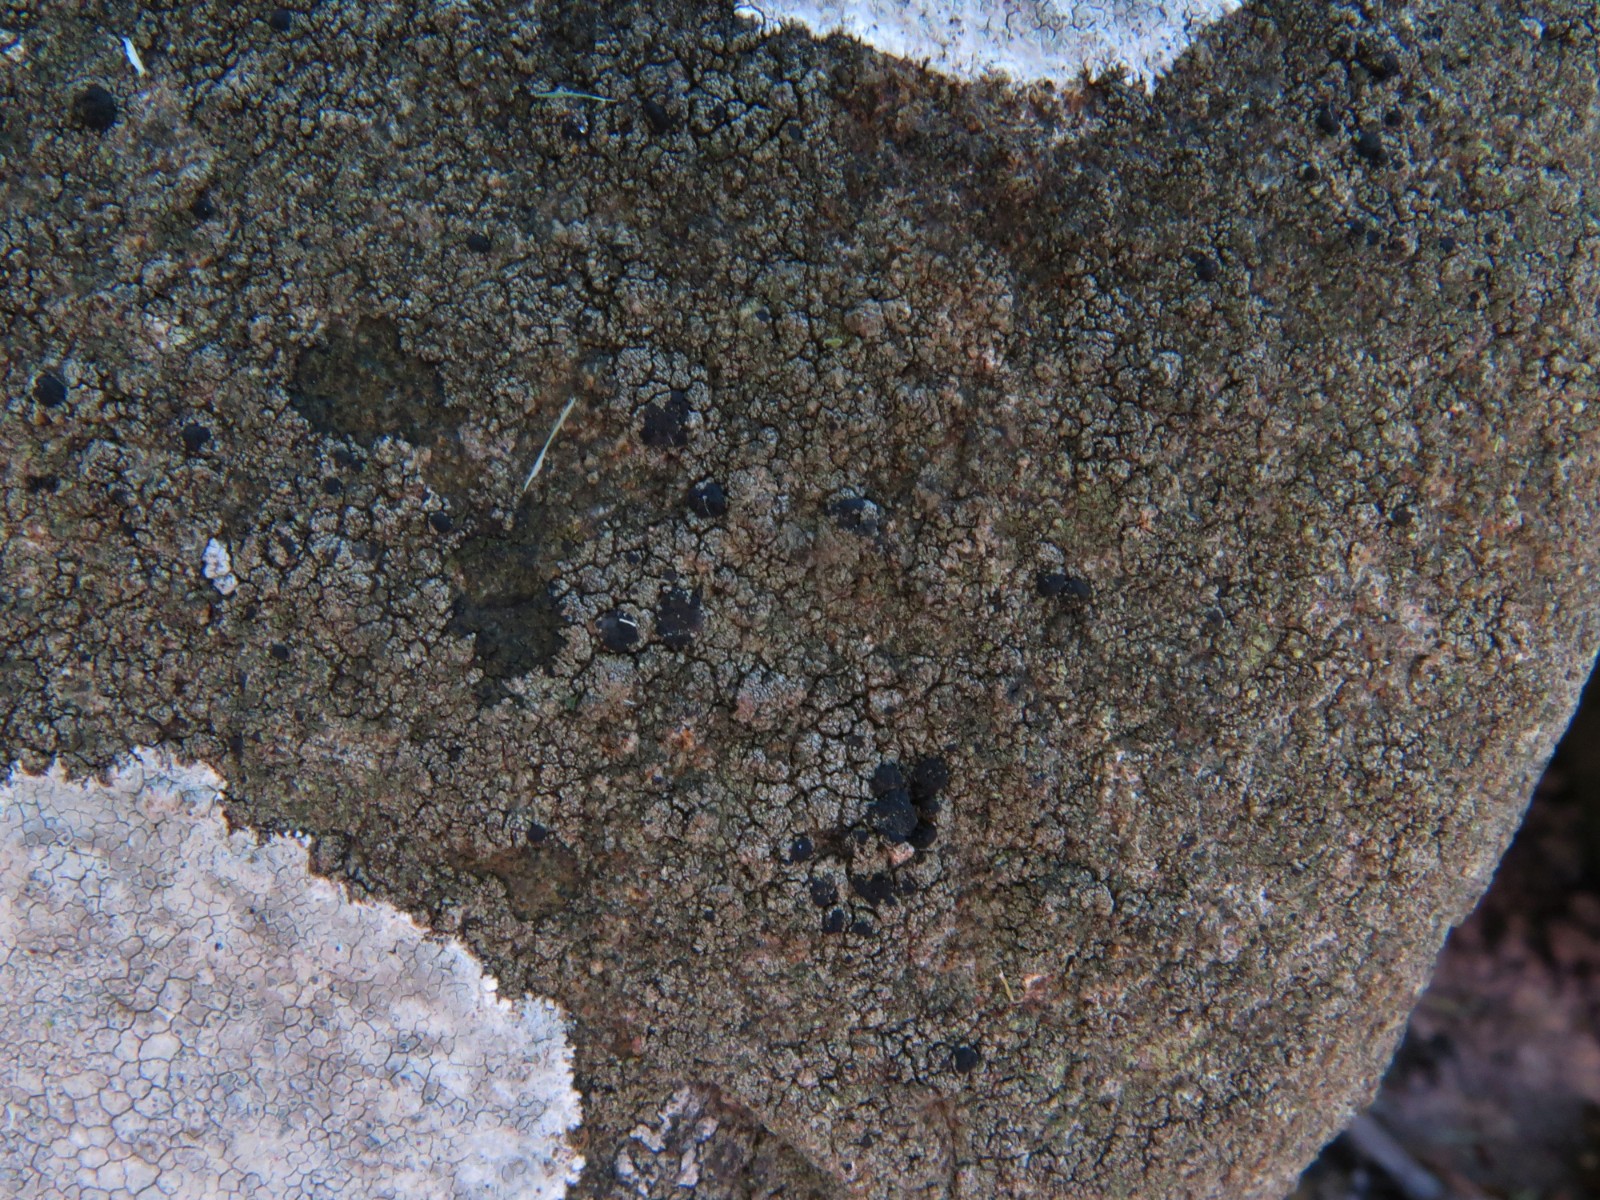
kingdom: Fungi
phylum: Ascomycota
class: Lecanoromycetes
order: Lecanorales
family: Lecanoraceae
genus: Lecidella
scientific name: Lecidella scabra
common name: skurvet skivelav
